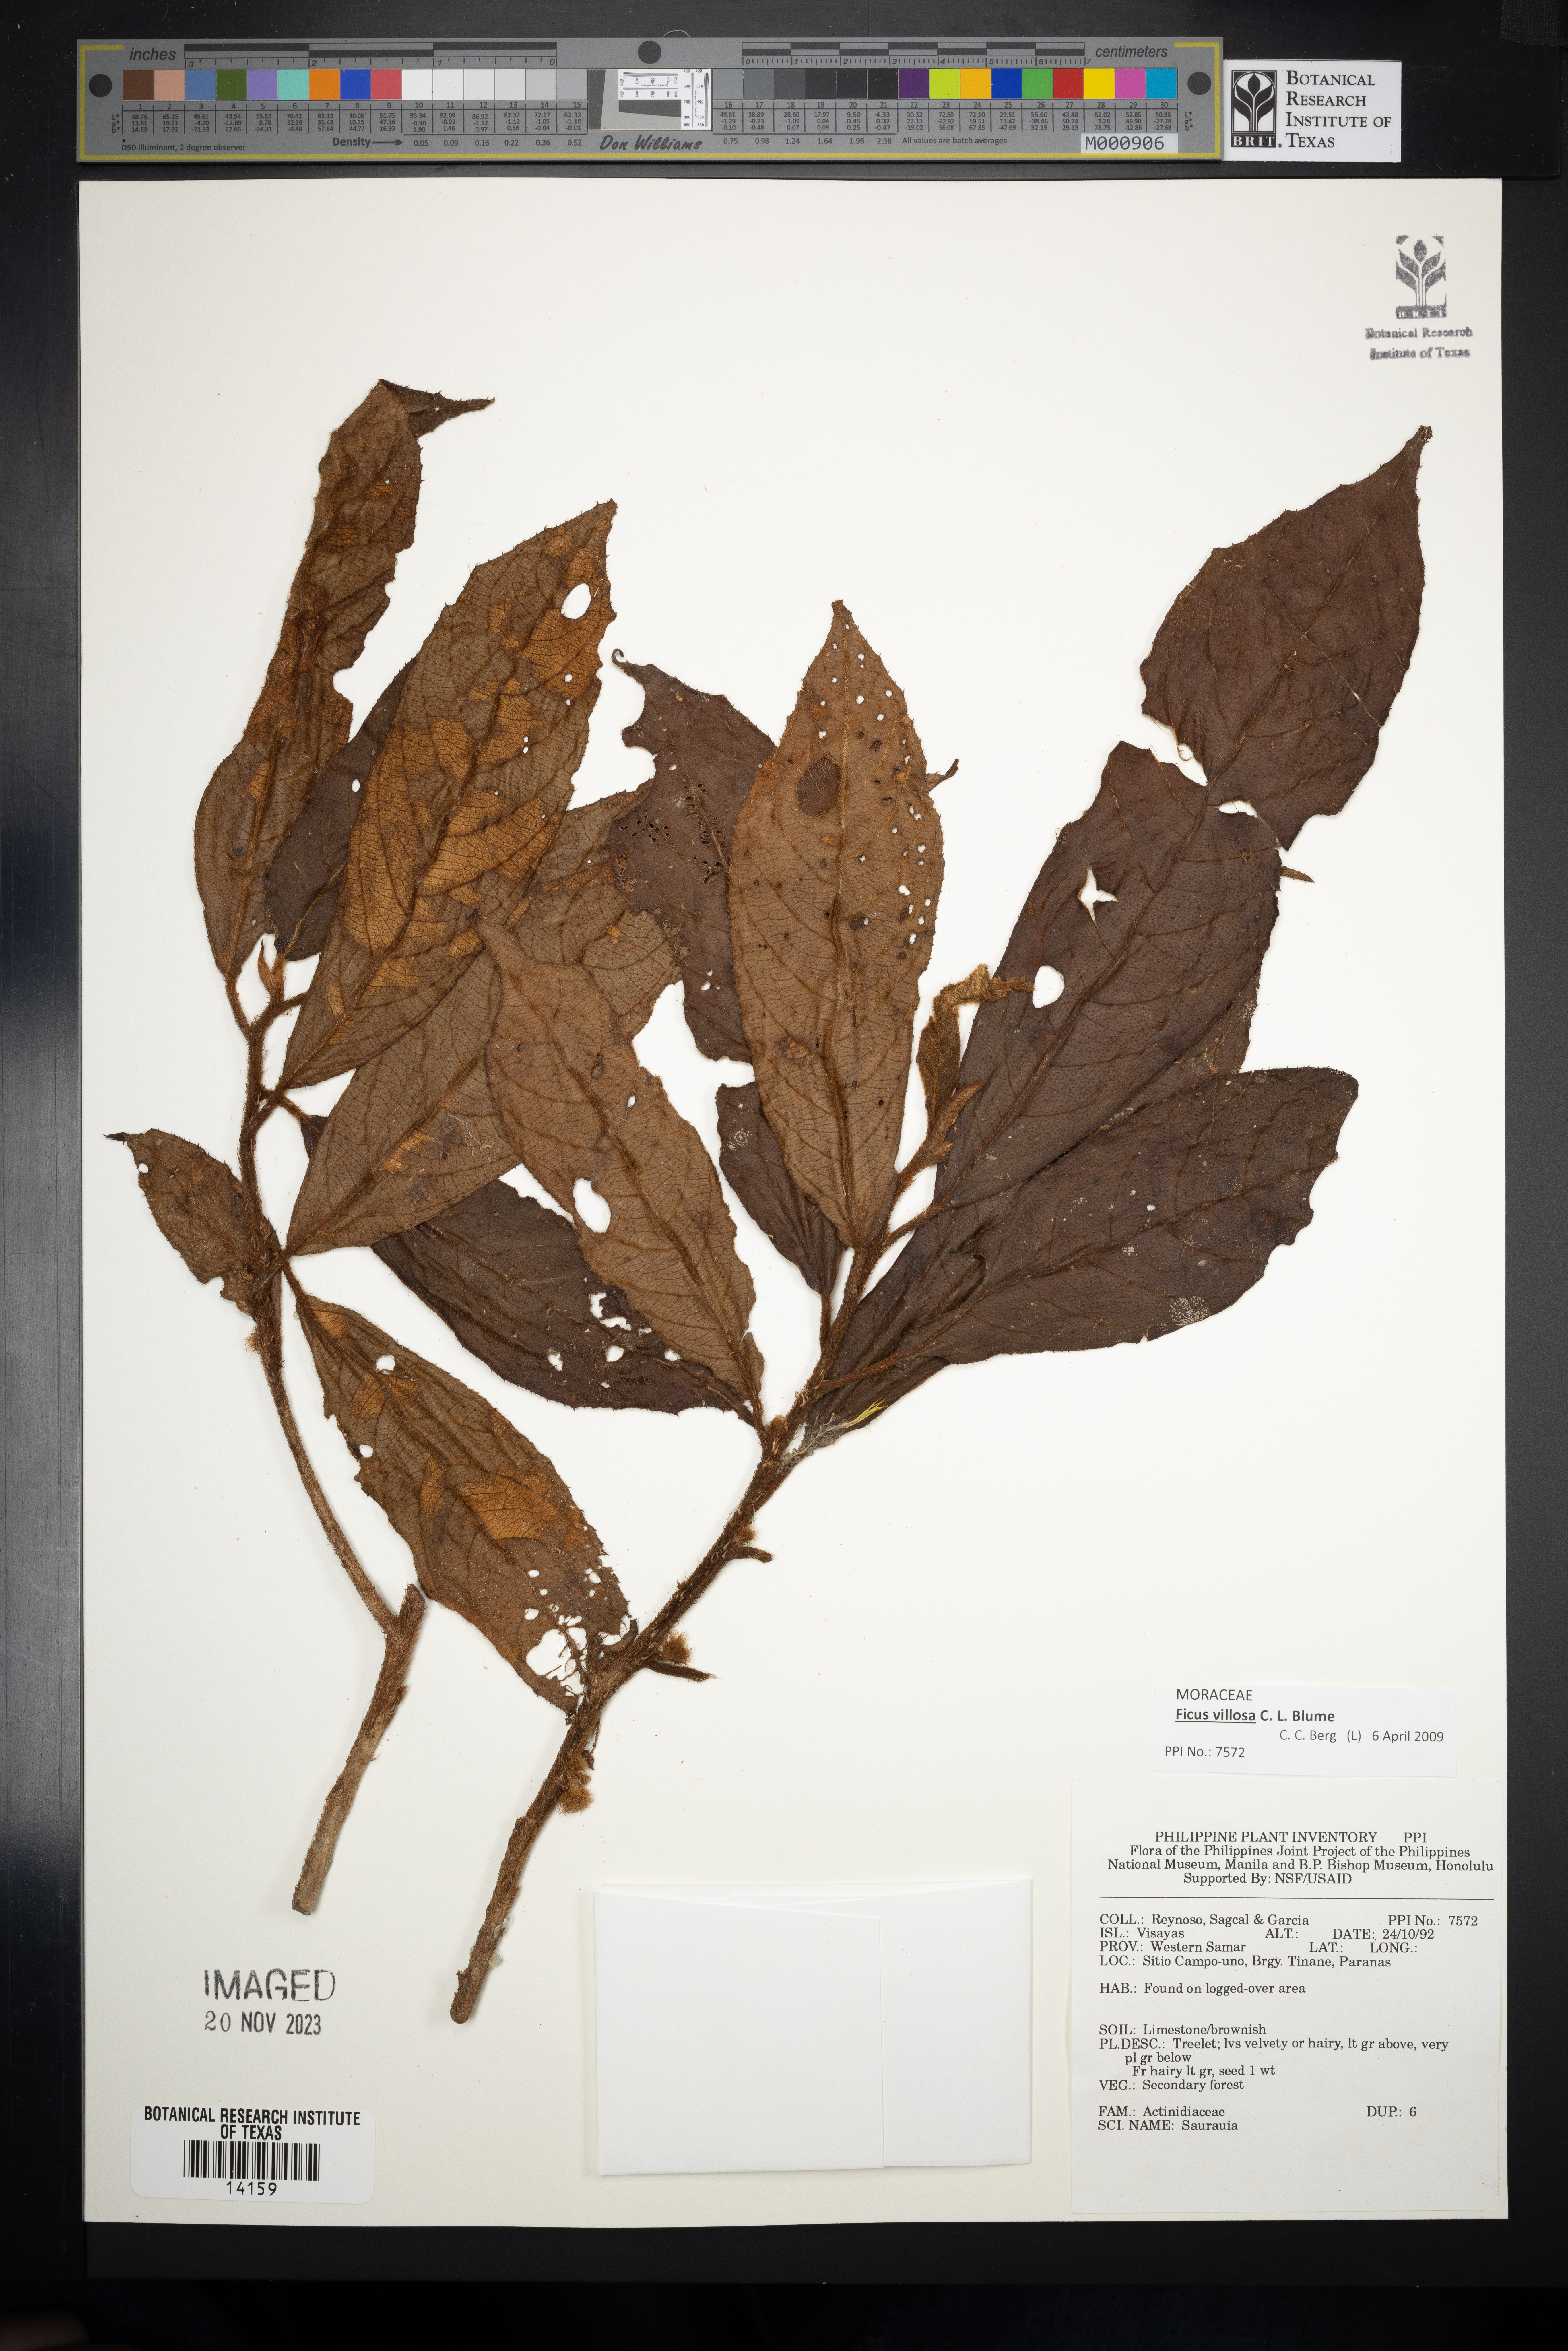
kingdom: Plantae
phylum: Tracheophyta
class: Magnoliopsida
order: Ericales
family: Actinidiaceae
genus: Saurauia
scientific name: Saurauia
